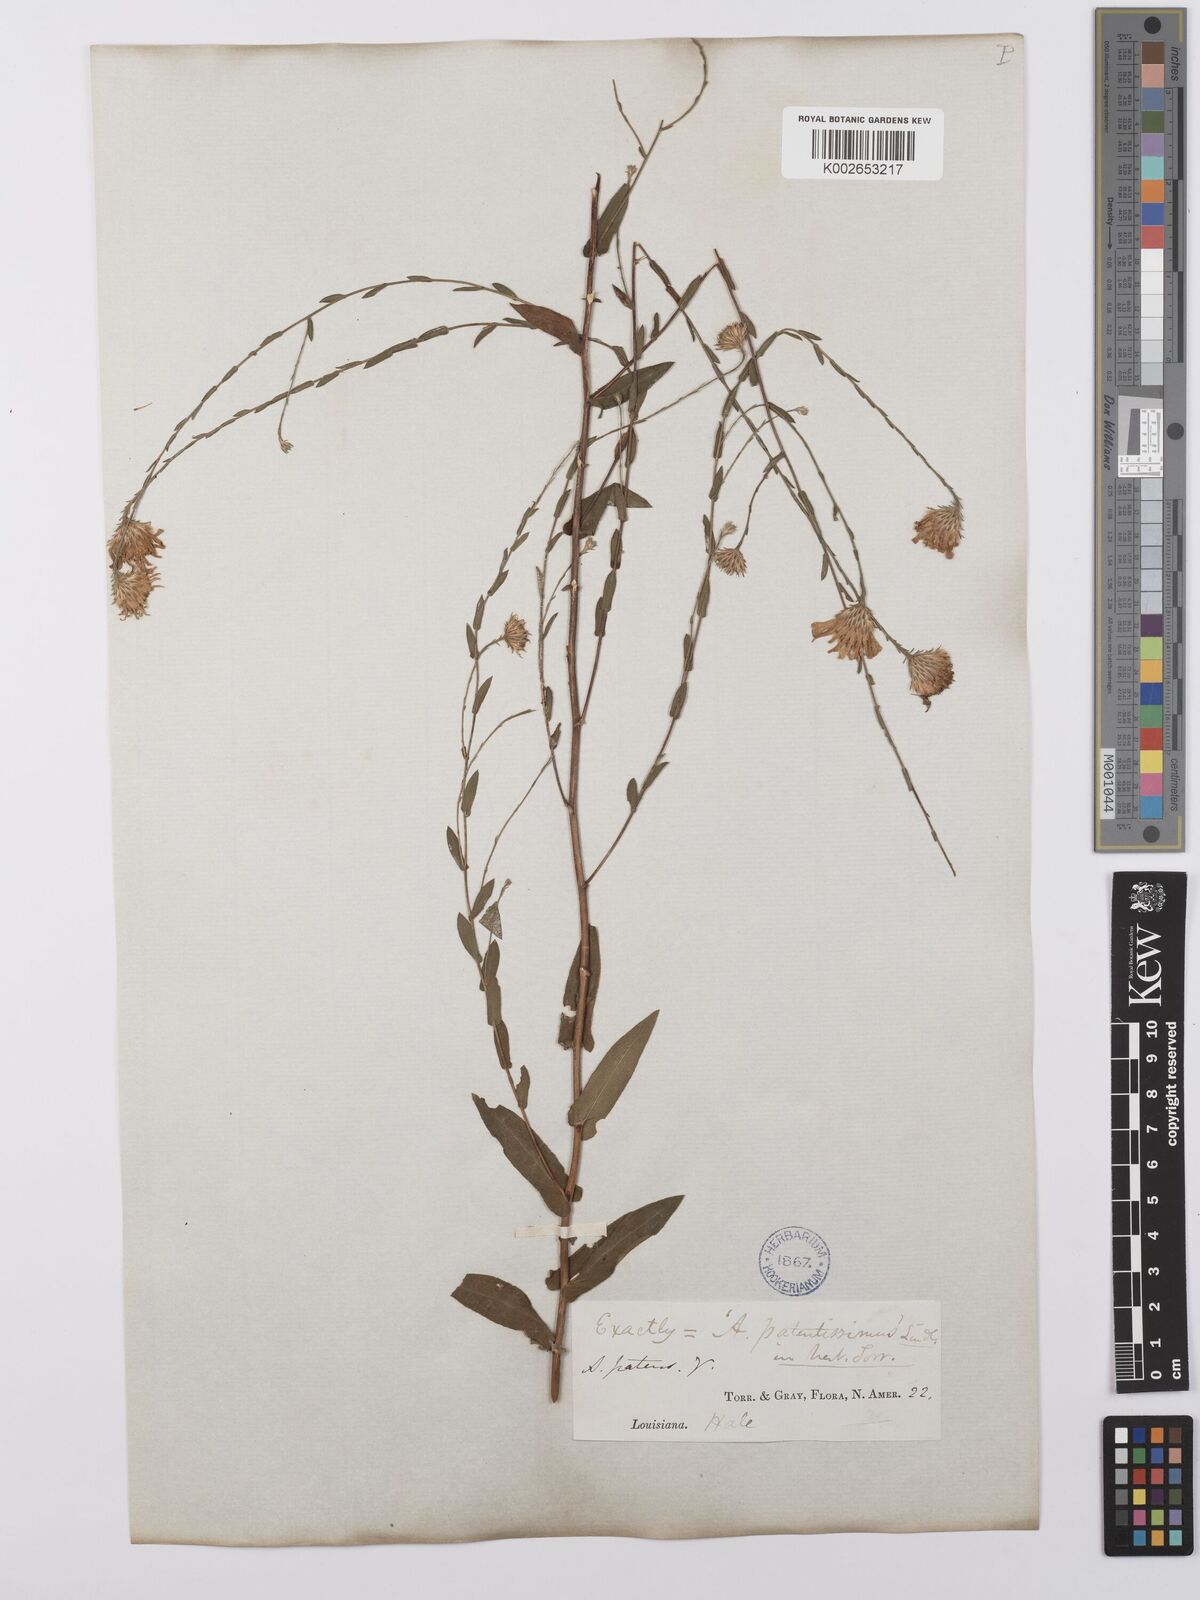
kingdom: Plantae
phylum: Tracheophyta
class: Magnoliopsida
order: Asterales
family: Asteraceae
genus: Symphyotrichum
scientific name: Symphyotrichum patens
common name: Late purple aster
